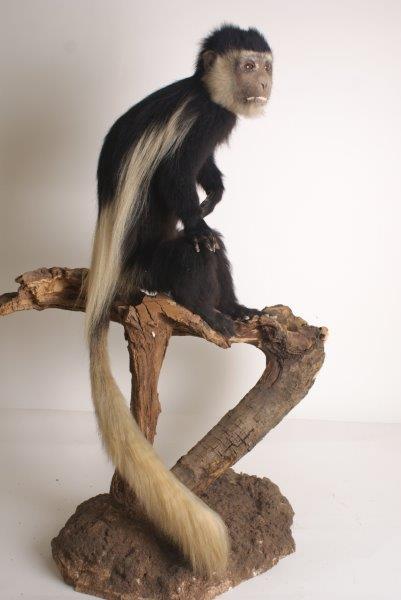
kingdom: Animalia
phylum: Chordata
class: Mammalia
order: Primates
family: Cercopithecidae
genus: Colobus
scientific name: Colobus guereza
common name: Mantled guereza
